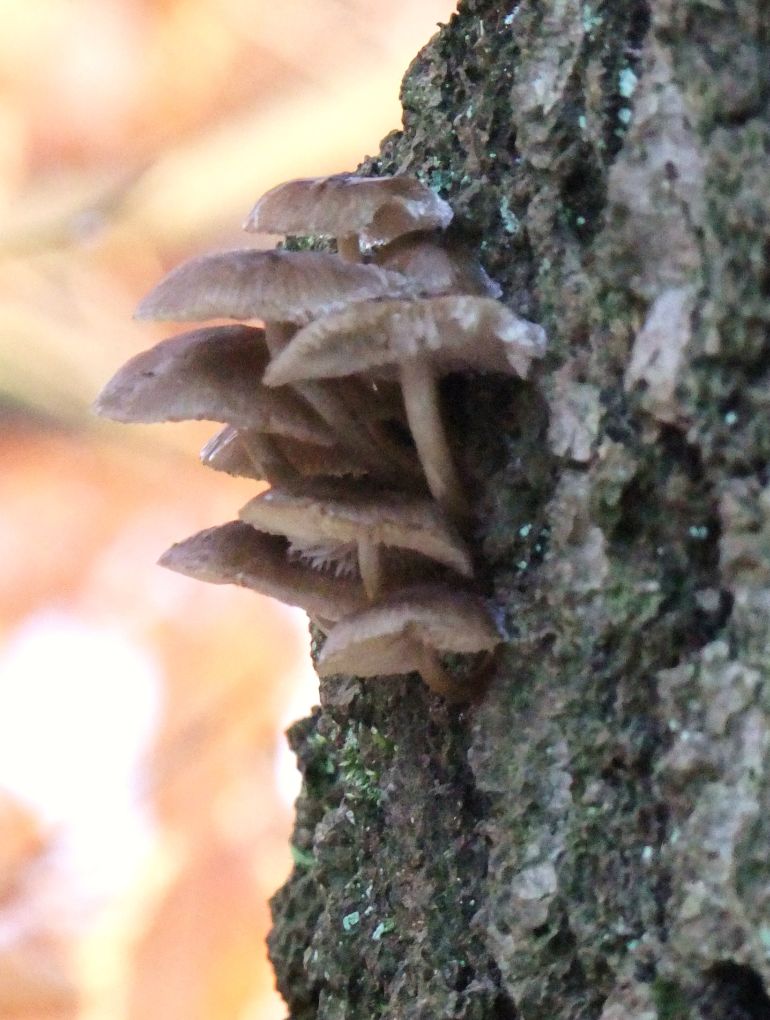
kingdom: Fungi
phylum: Basidiomycota
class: Agaricomycetes
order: Agaricales
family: Mycenaceae
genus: Mycena
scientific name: Mycena tintinnabulum
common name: vinter-huesvamp
